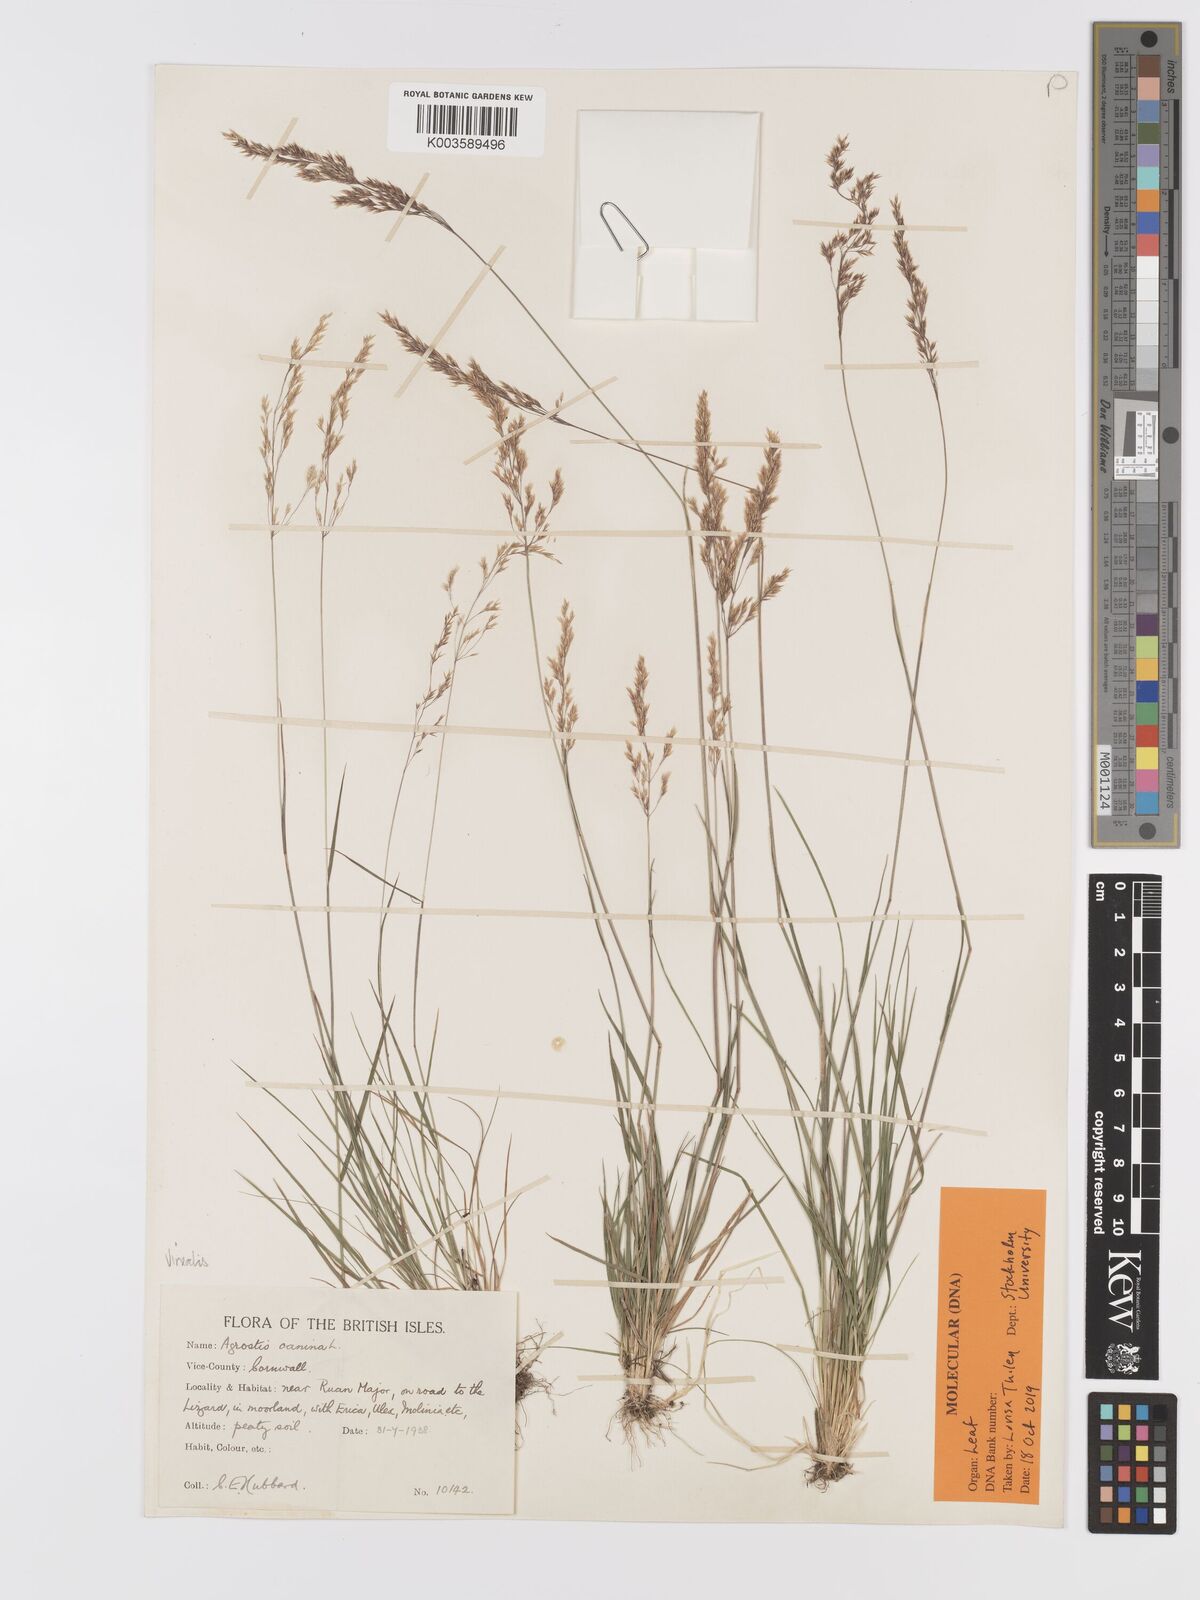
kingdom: Plantae
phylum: Tracheophyta
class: Liliopsida
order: Poales
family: Poaceae
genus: Agrostis
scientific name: Agrostis
